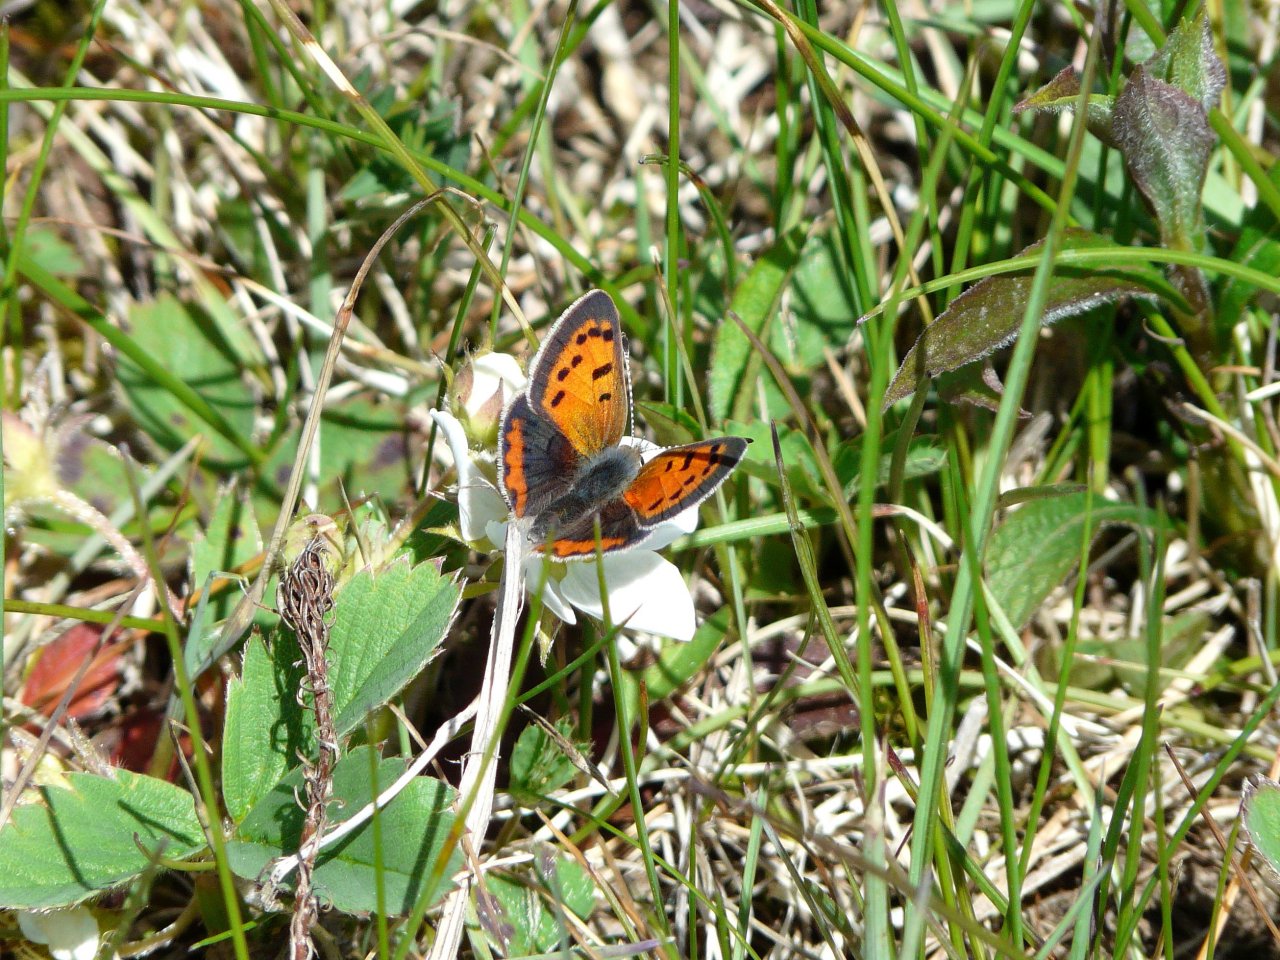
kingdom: Animalia
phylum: Arthropoda
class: Insecta
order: Lepidoptera
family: Lycaenidae
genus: Lycaena
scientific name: Lycaena phlaeas
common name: American Copper
